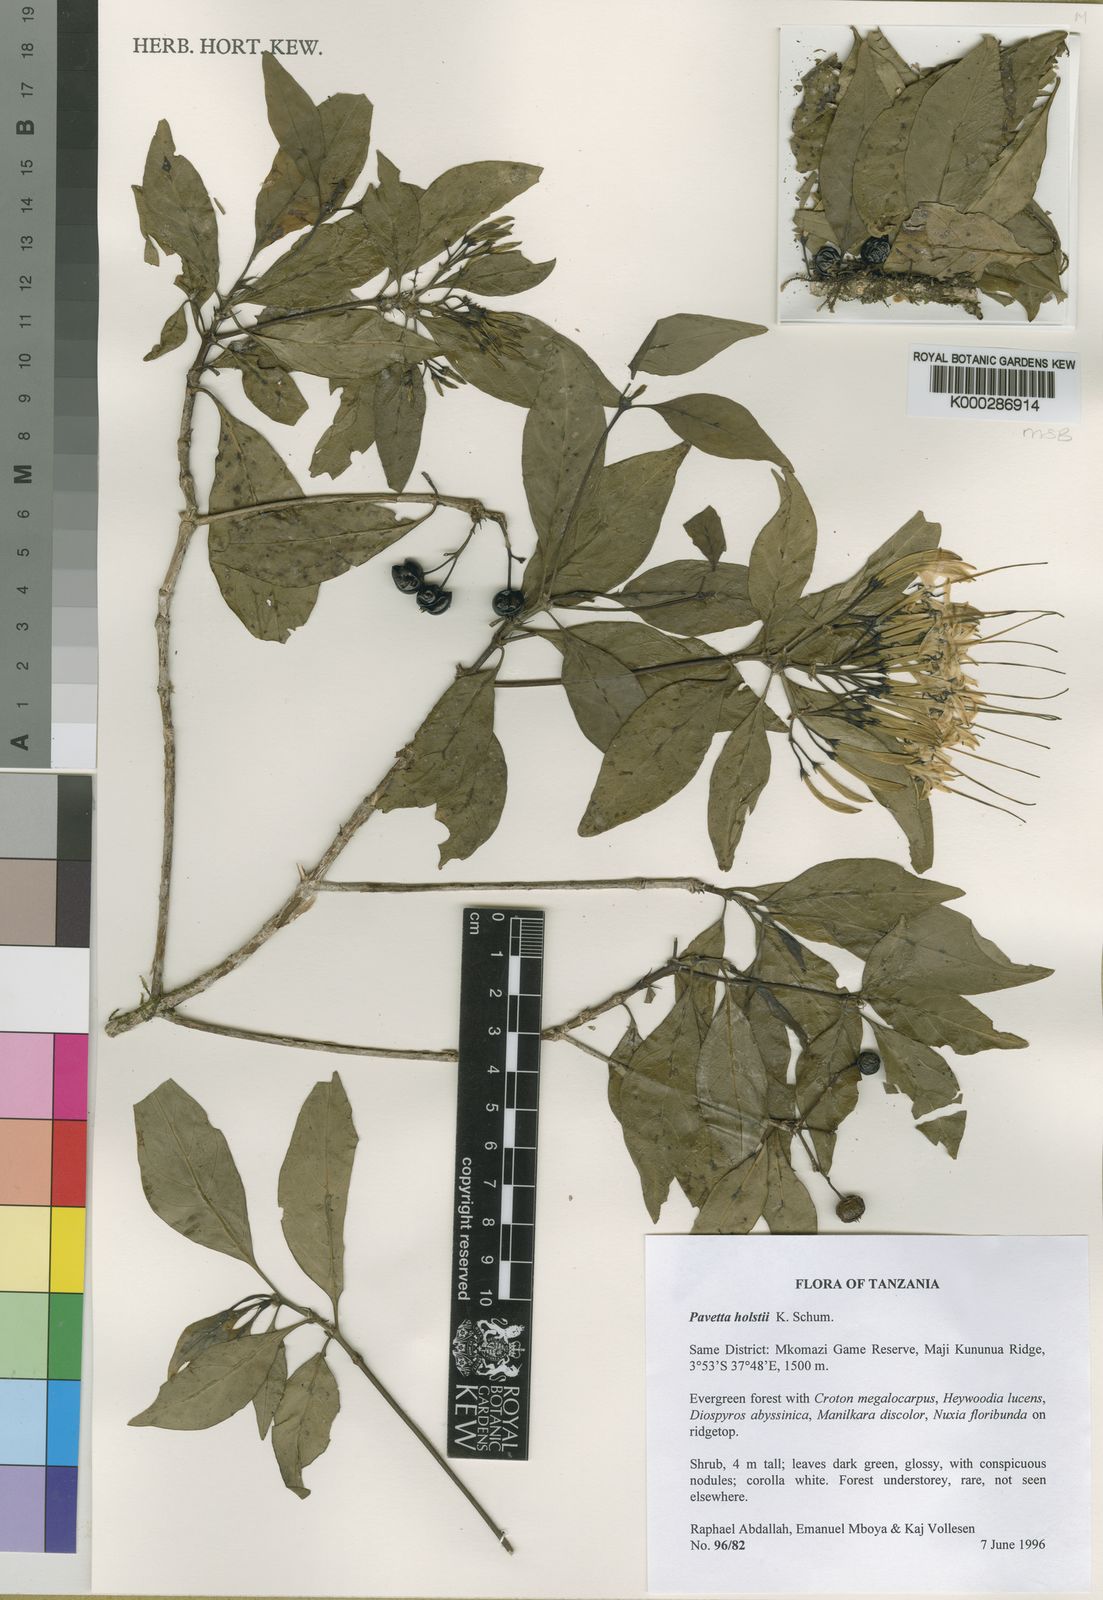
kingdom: Plantae
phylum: Tracheophyta
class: Magnoliopsida
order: Gentianales
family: Rubiaceae
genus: Pavetta
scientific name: Pavetta
